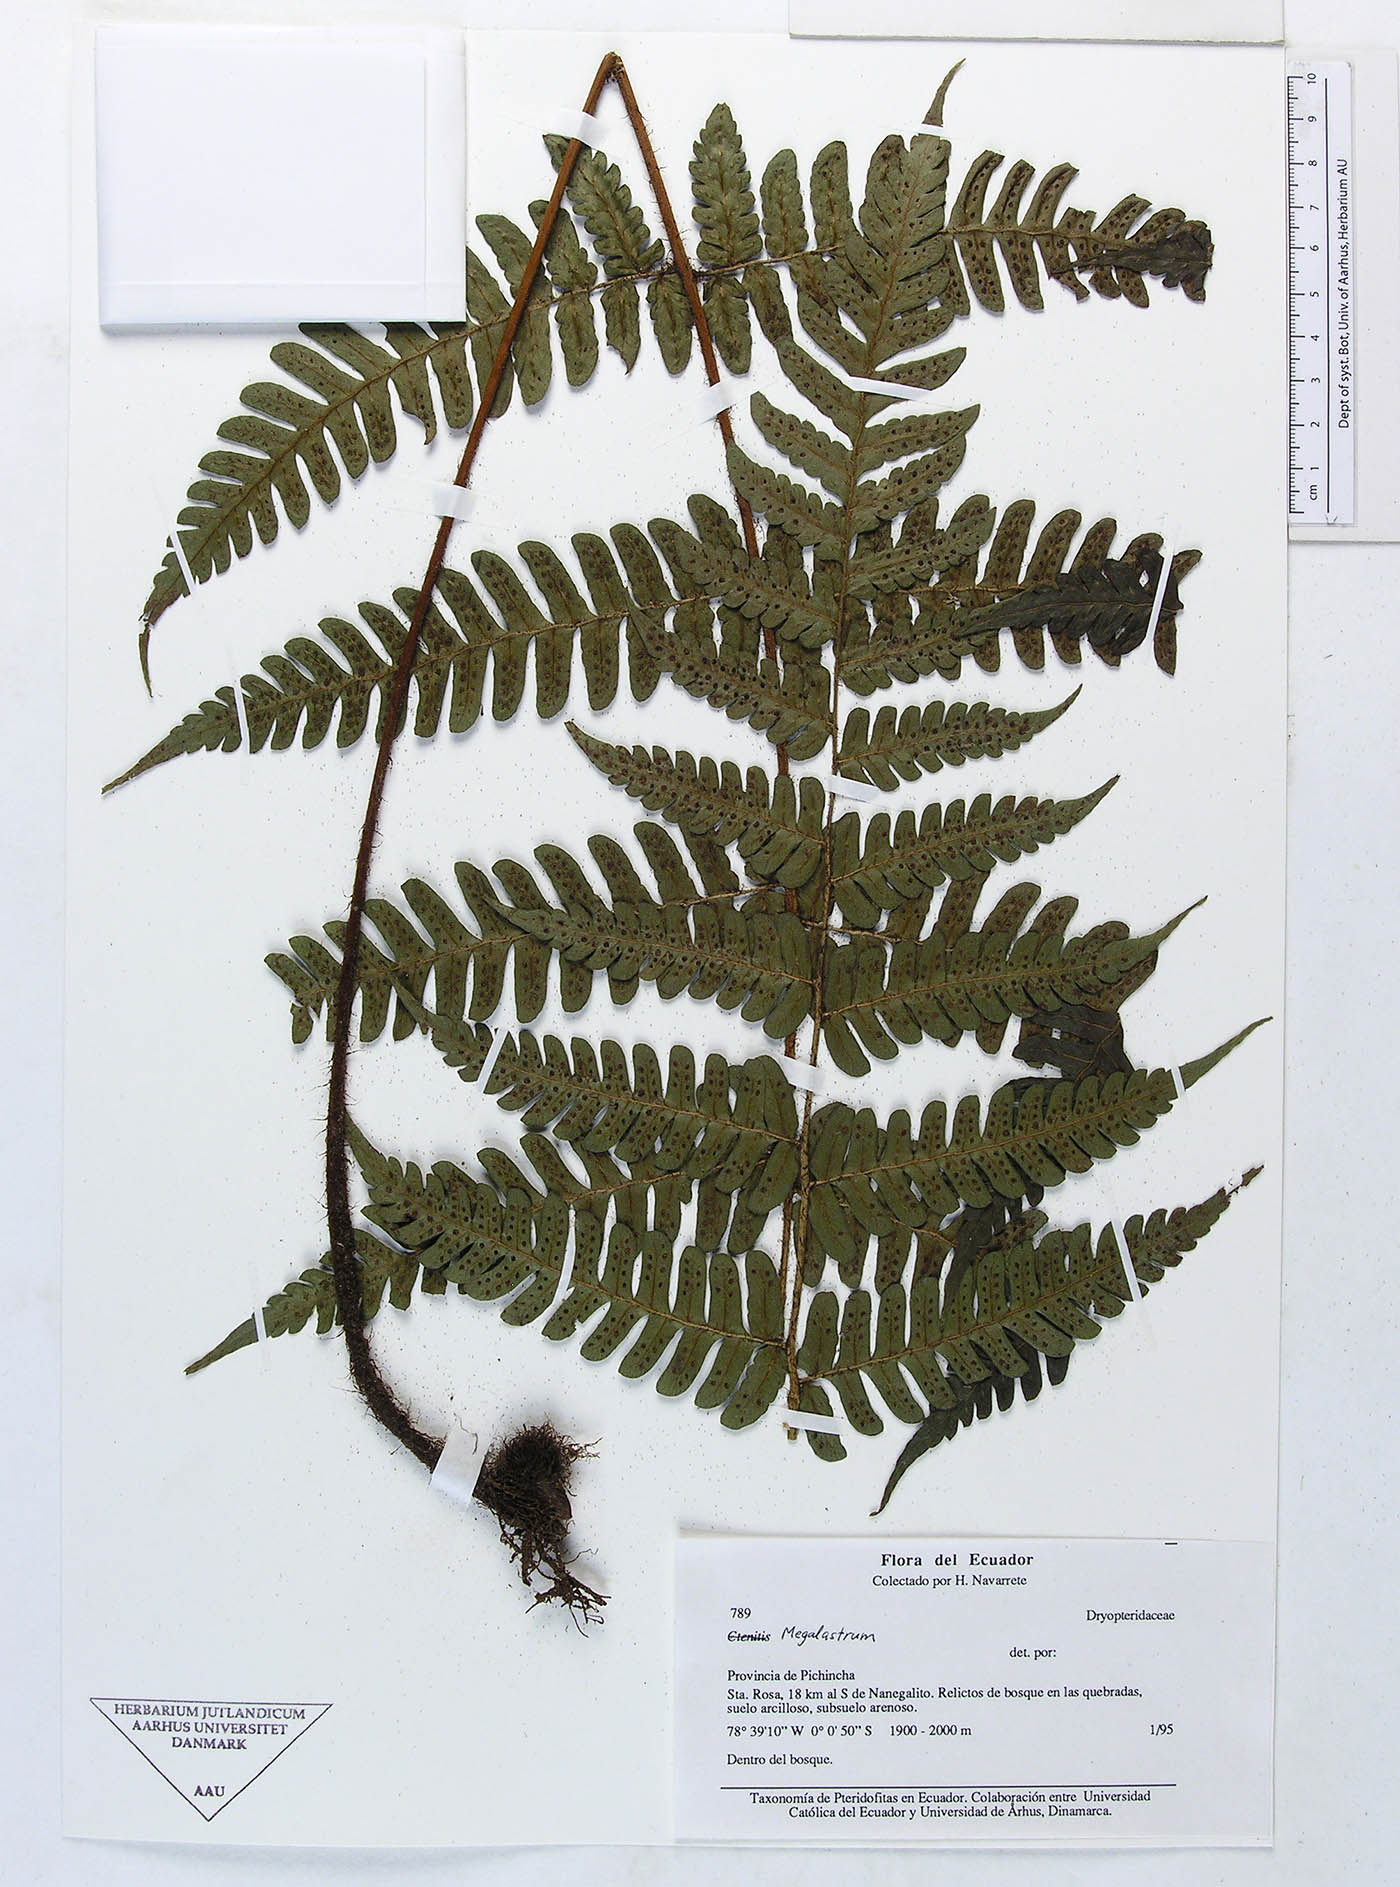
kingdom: Plantae
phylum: Tracheophyta
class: Polypodiopsida
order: Polypodiales
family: Dryopteridaceae
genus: Megalastrum
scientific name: Megalastrum biseriale
